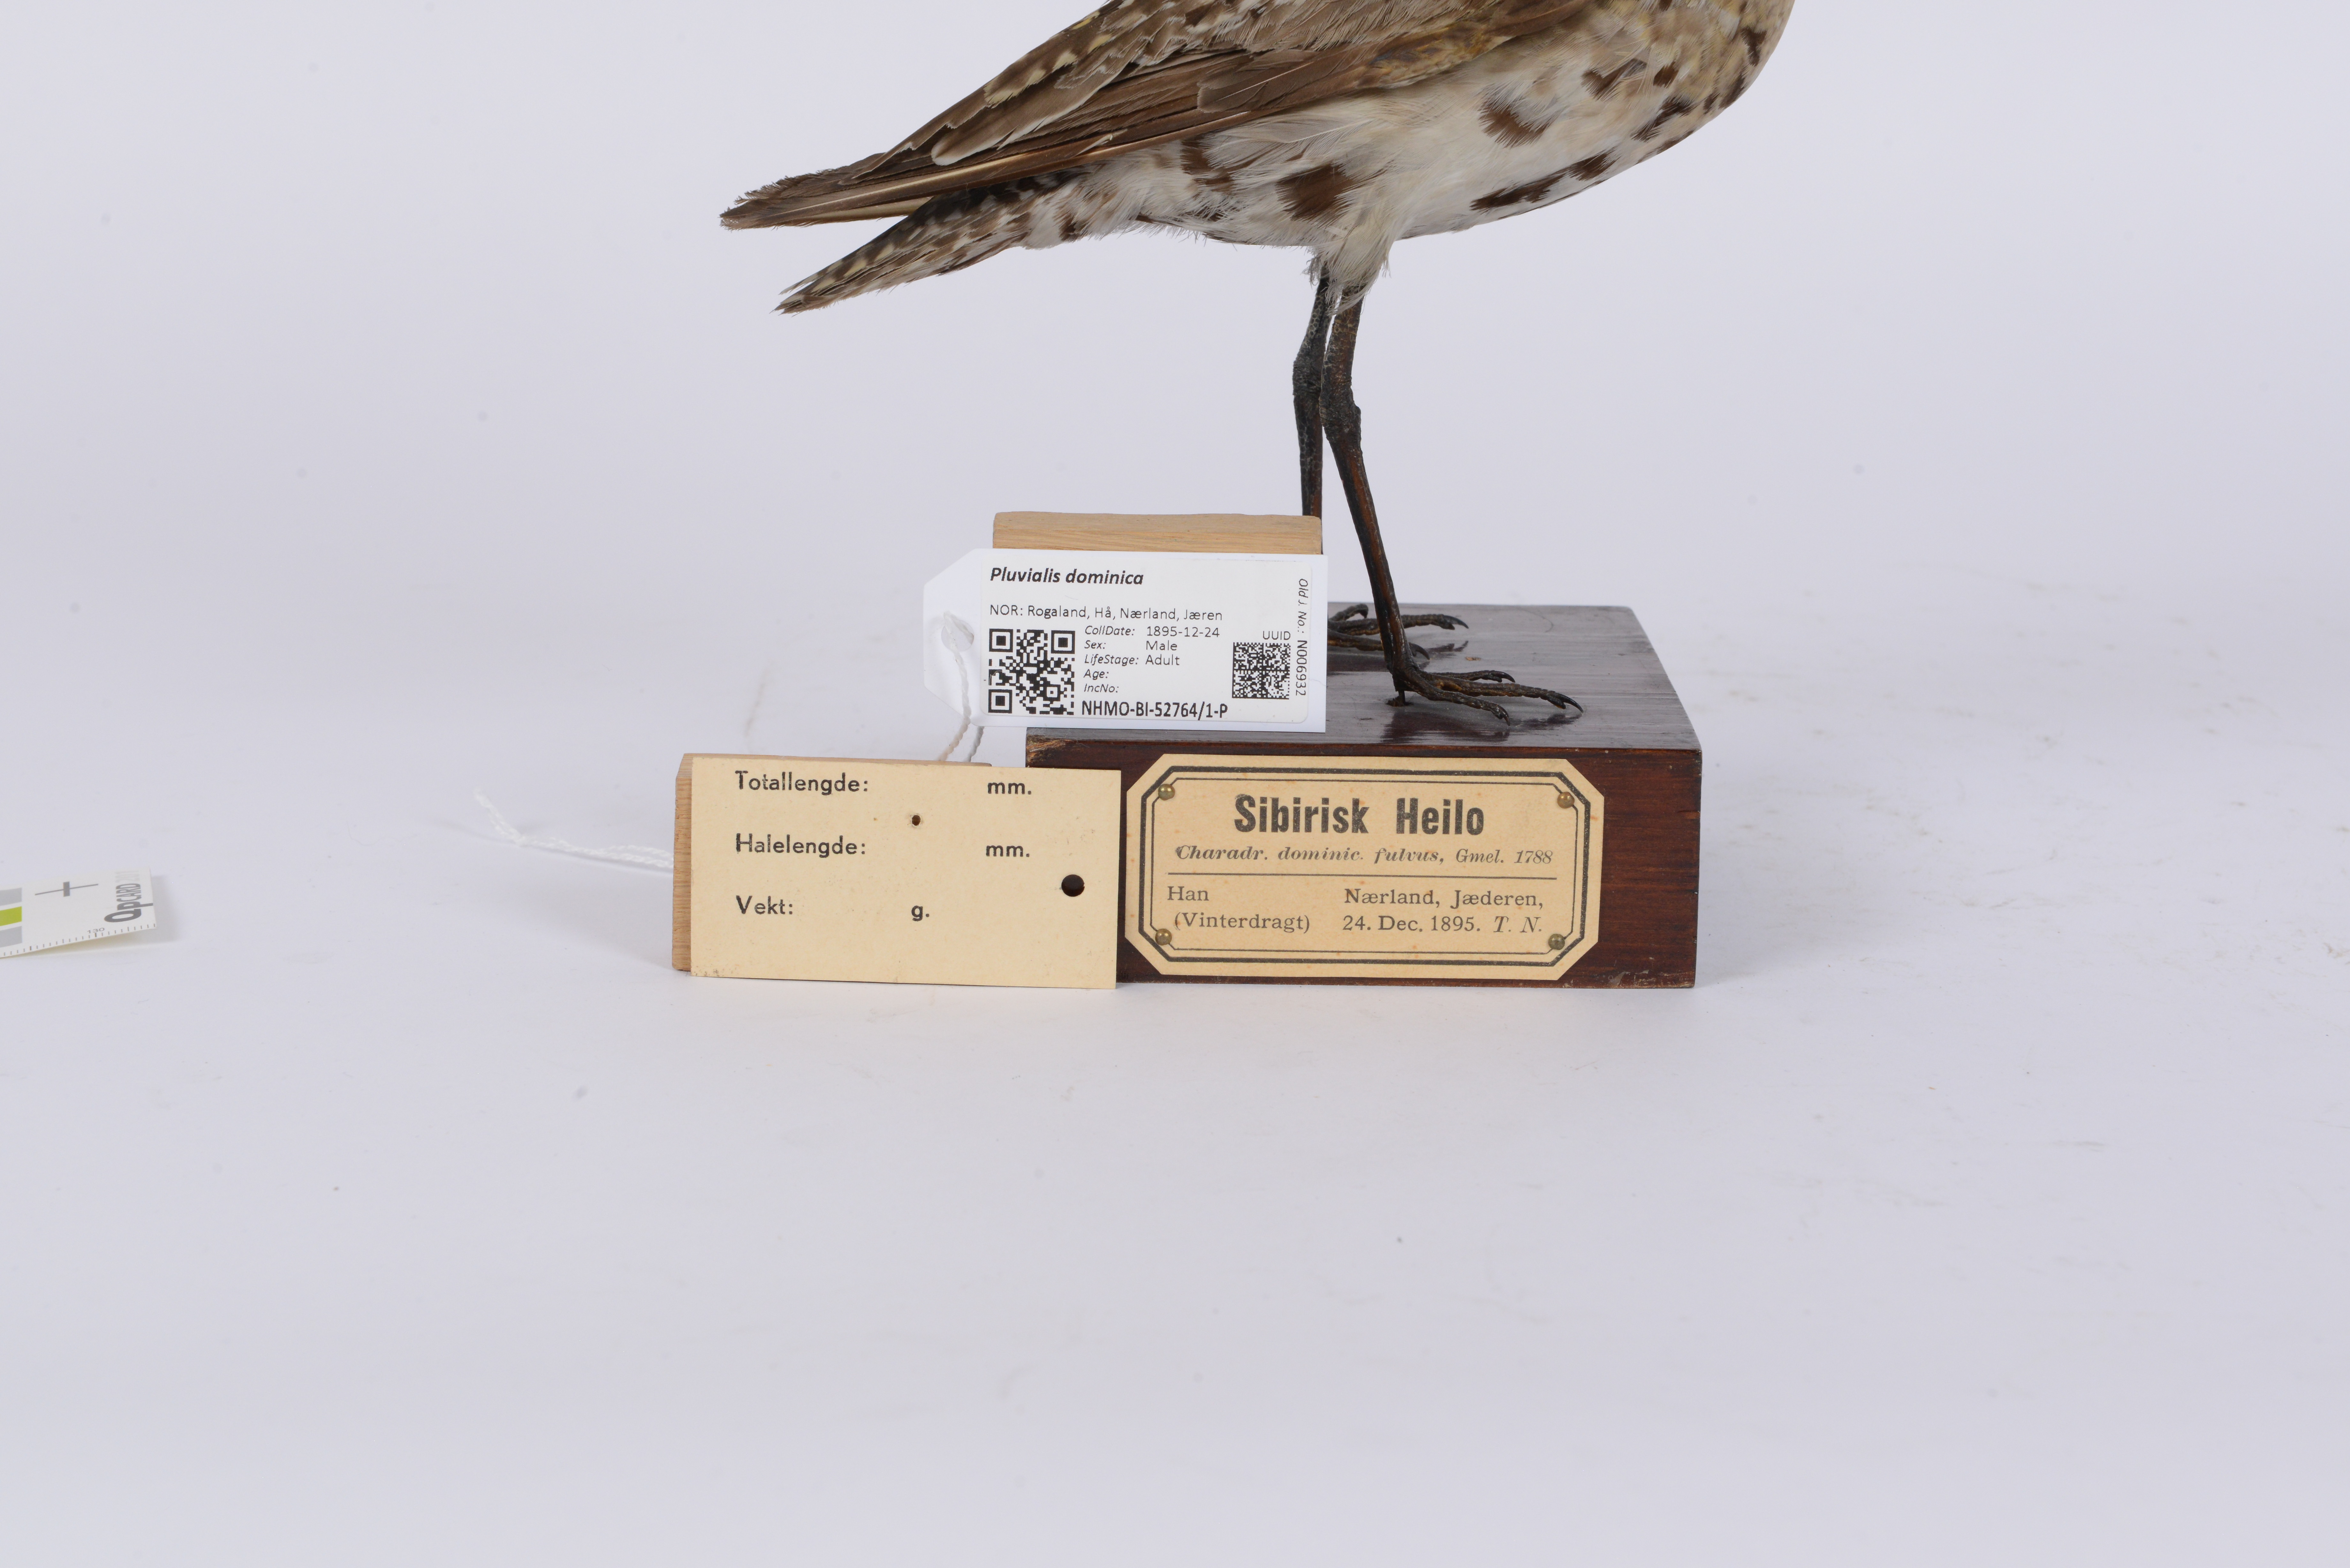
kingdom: Animalia
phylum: Chordata
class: Aves
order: Charadriiformes
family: Charadriidae
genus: Pluvialis
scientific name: Pluvialis dominica
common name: American golden plover
